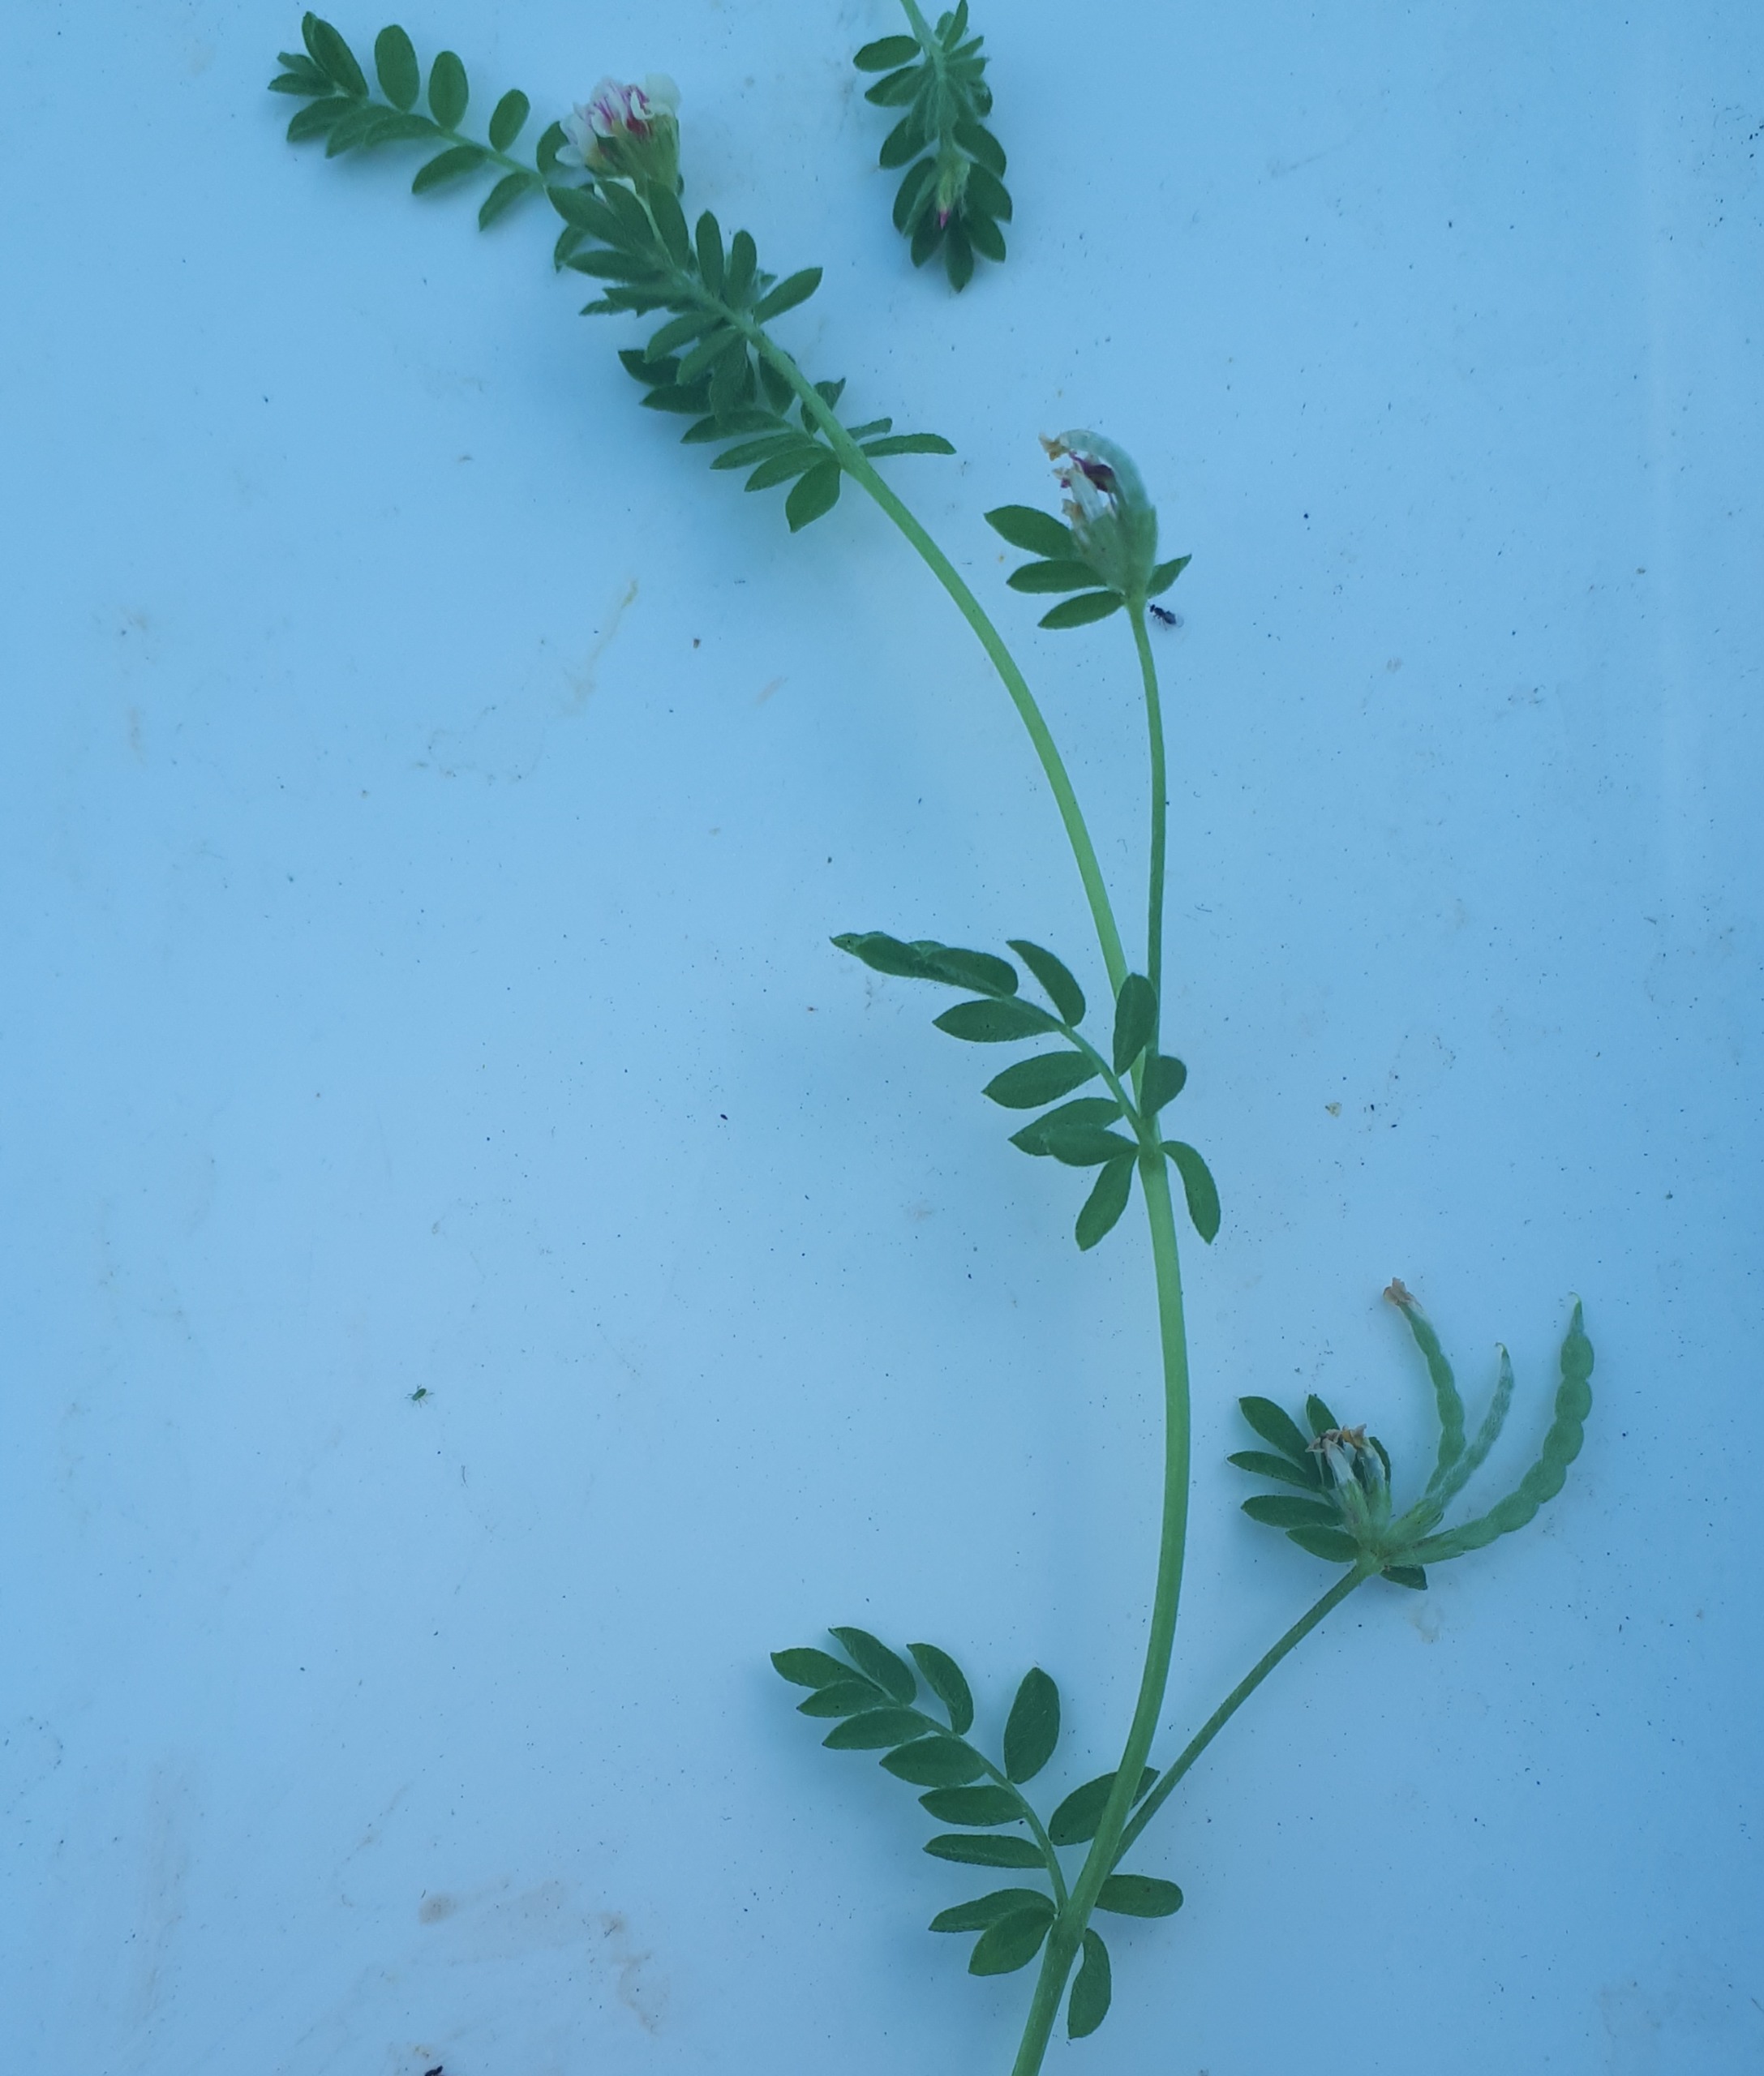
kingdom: Plantae
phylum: Tracheophyta
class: Magnoliopsida
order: Fabales
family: Fabaceae
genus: Ornithopus
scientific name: Ornithopus perpusillus
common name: Liden fugleklo
